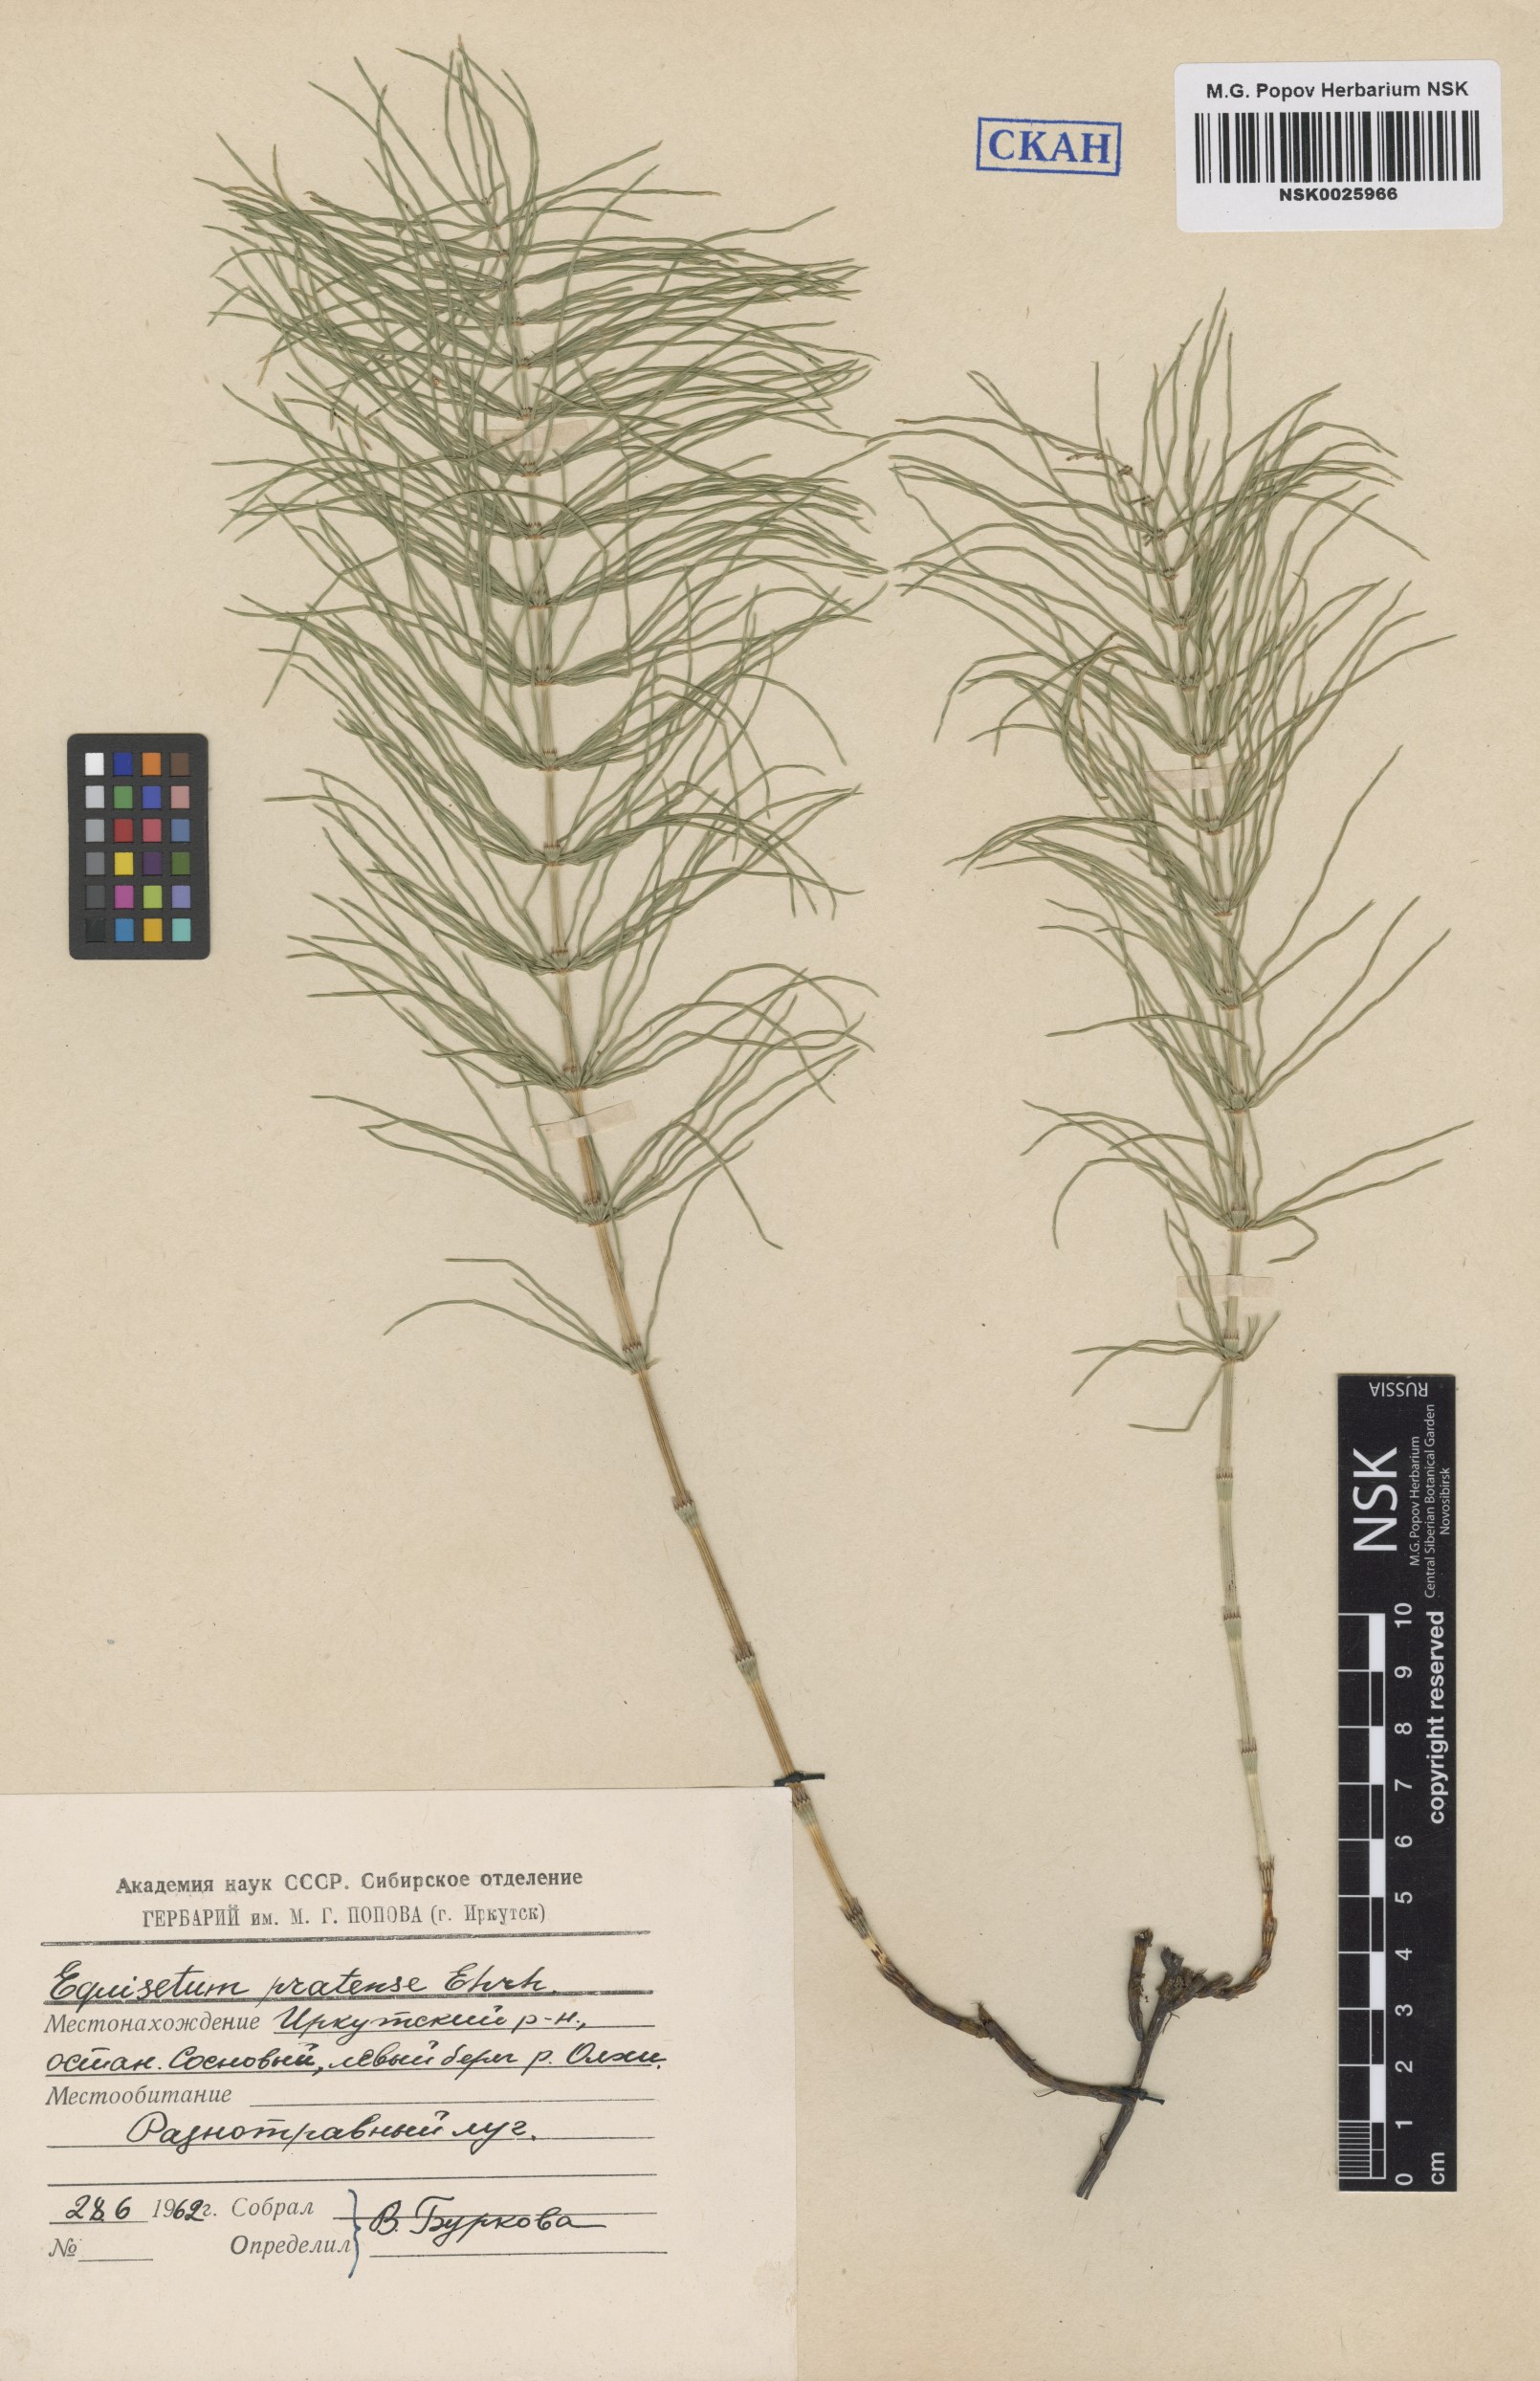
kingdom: Plantae
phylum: Tracheophyta
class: Polypodiopsida
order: Equisetales
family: Equisetaceae
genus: Equisetum
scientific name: Equisetum pratense
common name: Meadow horsetail
